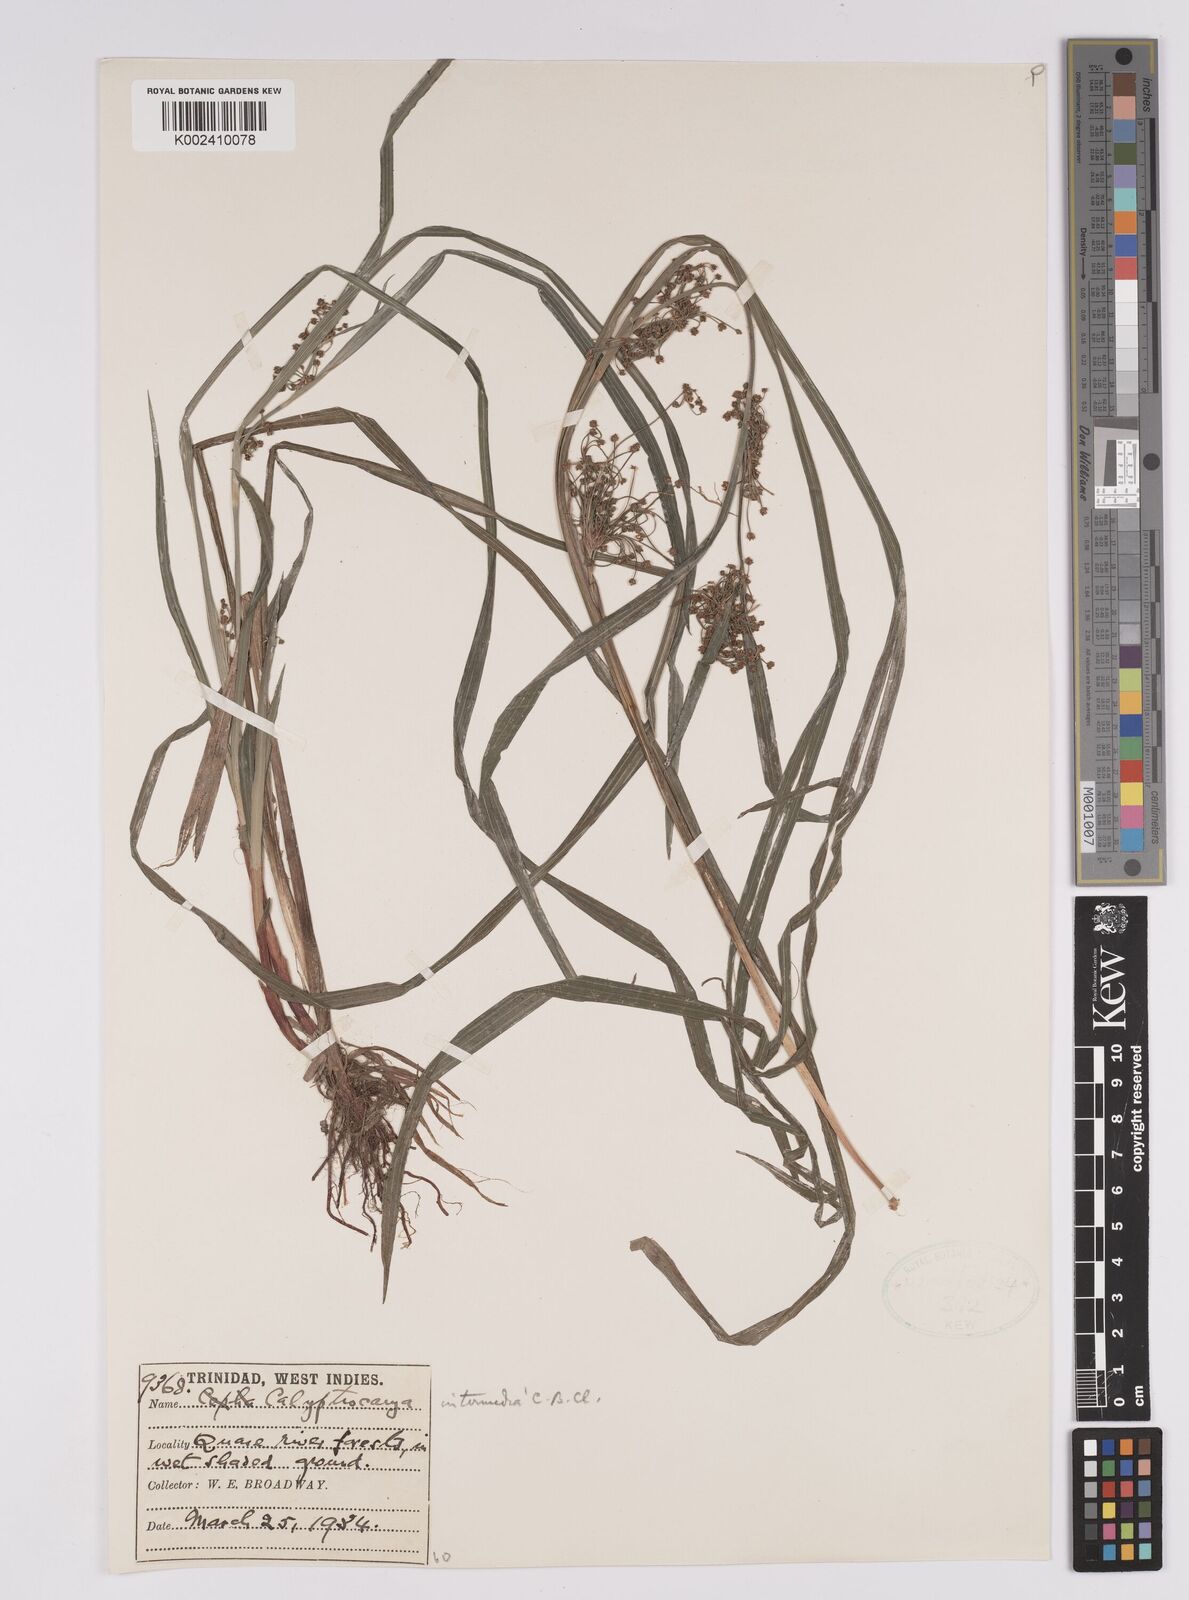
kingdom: Plantae
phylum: Tracheophyta
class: Liliopsida
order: Poales
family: Cyperaceae
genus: Calyptrocarya
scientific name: Calyptrocarya glomerulata
